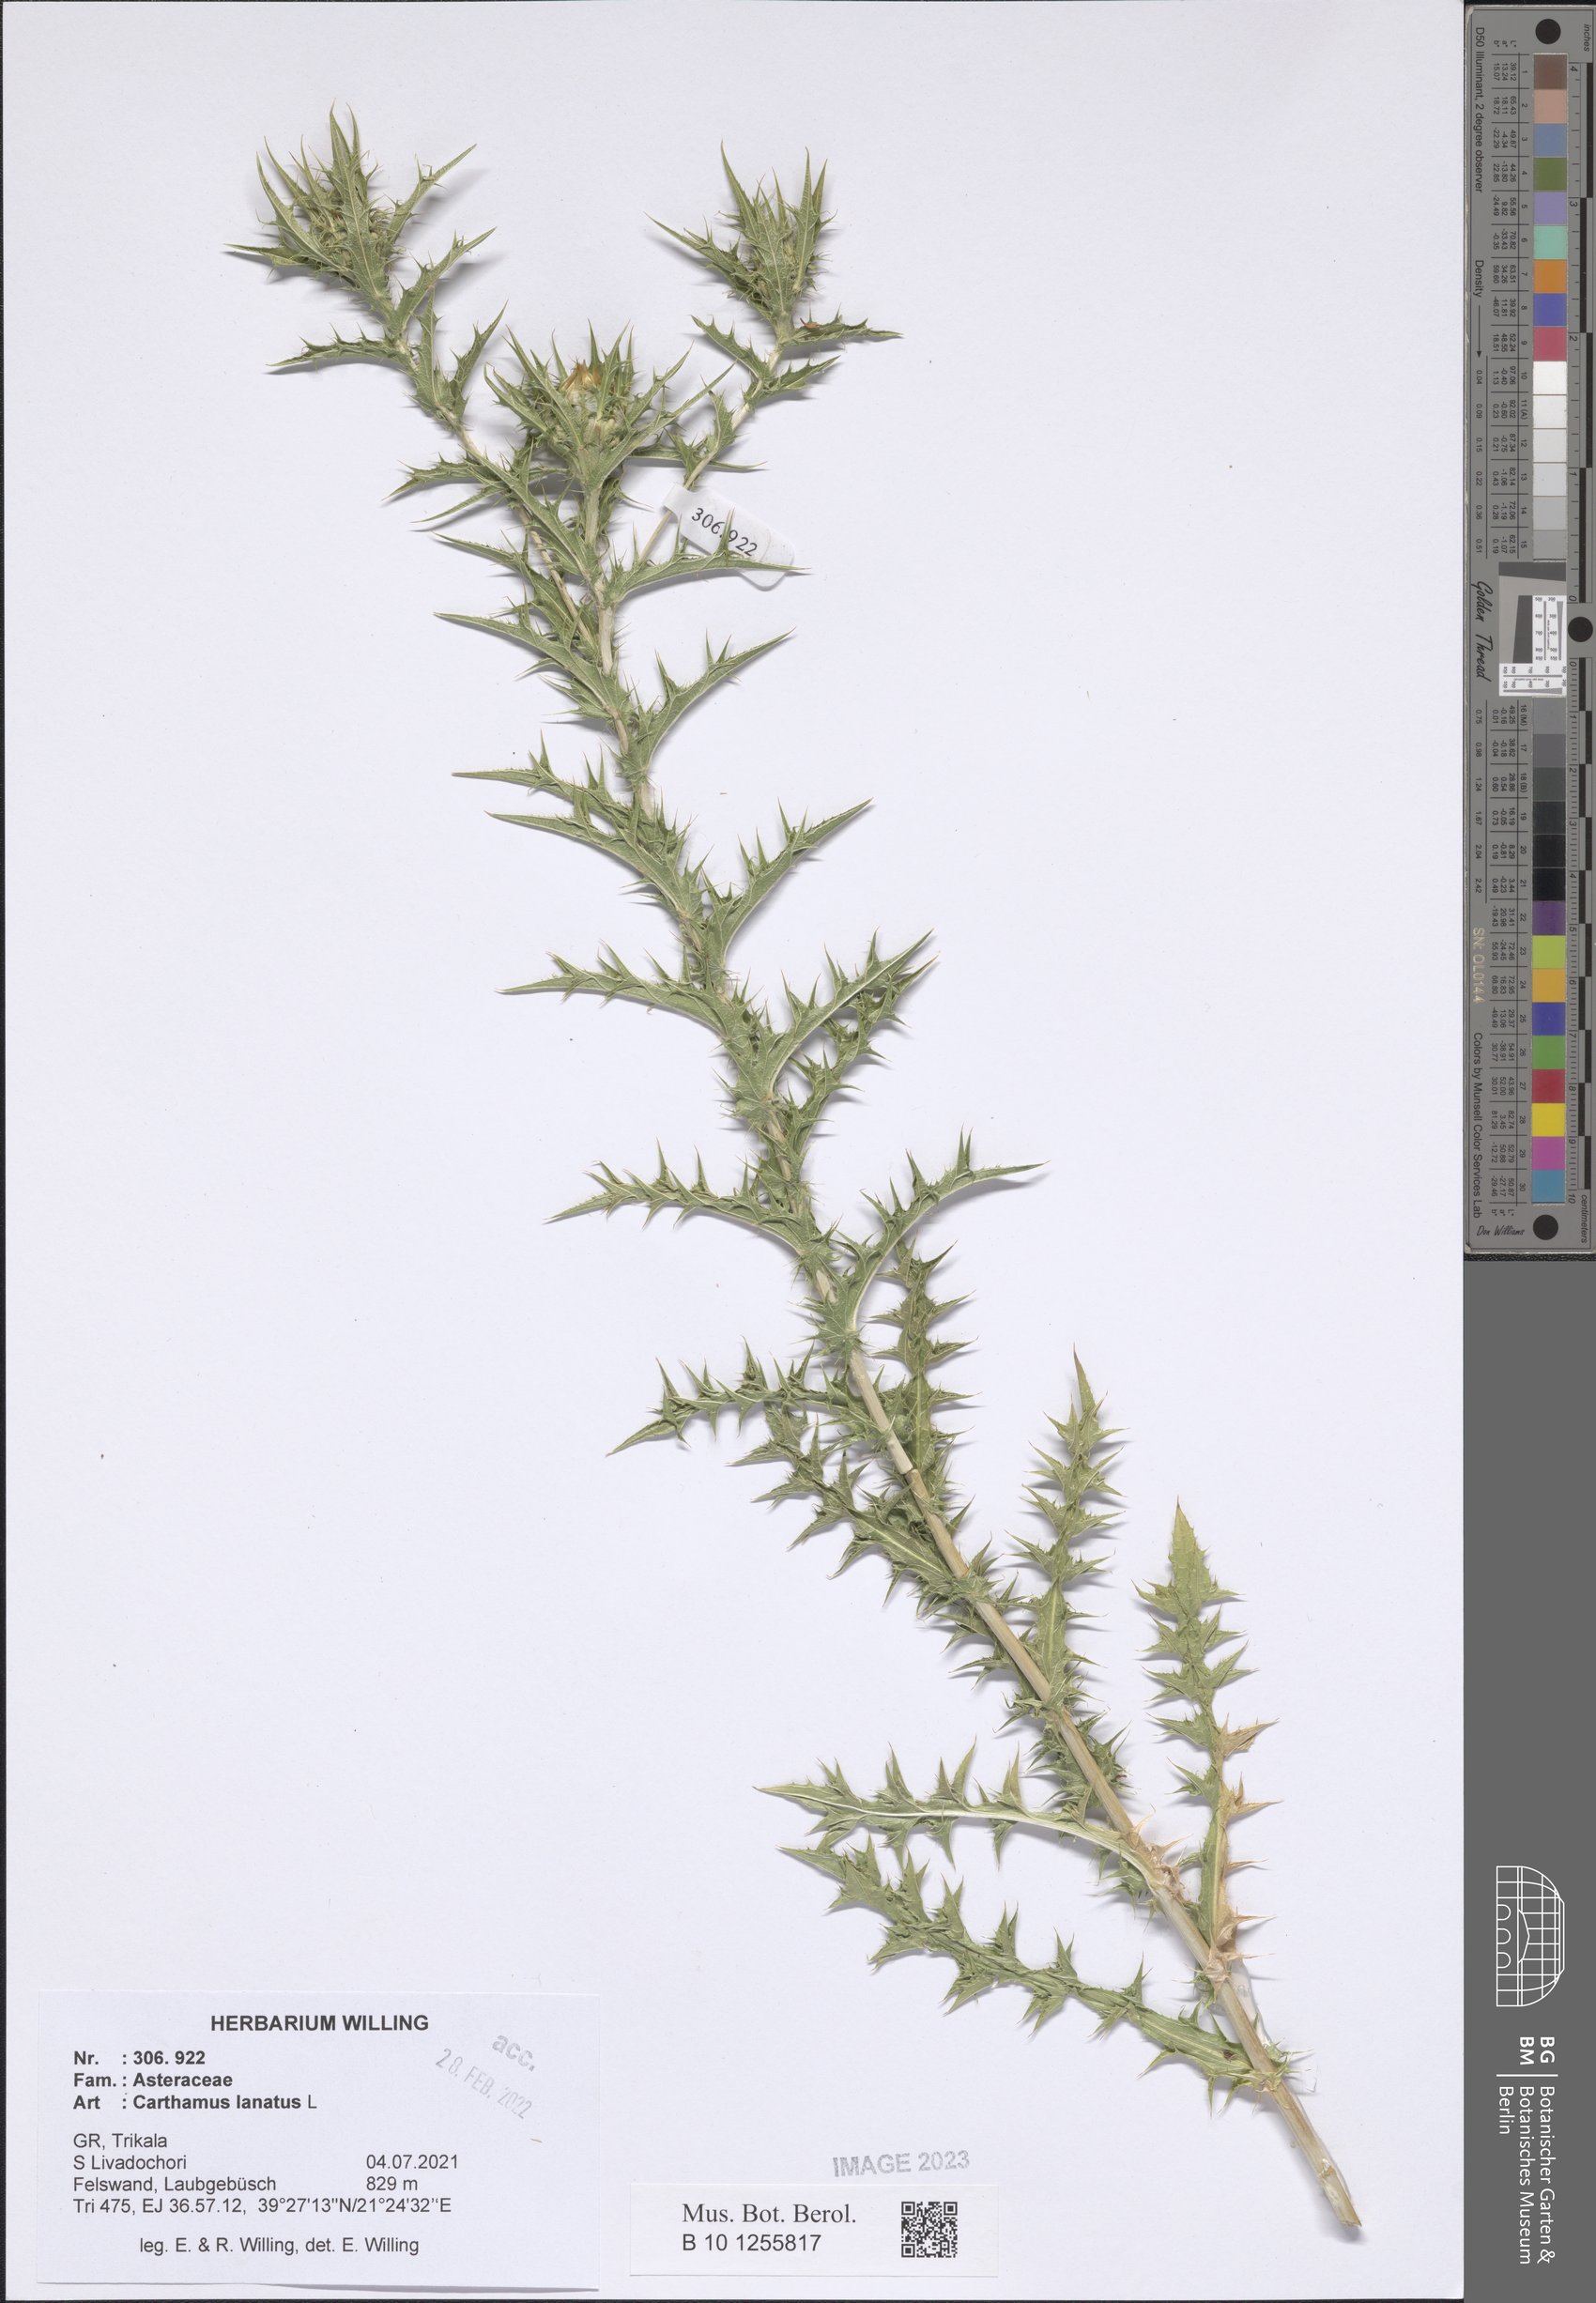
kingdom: Plantae
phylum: Tracheophyta
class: Magnoliopsida
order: Asterales
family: Asteraceae
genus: Carthamus
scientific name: Carthamus lanatus
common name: Downy safflower
